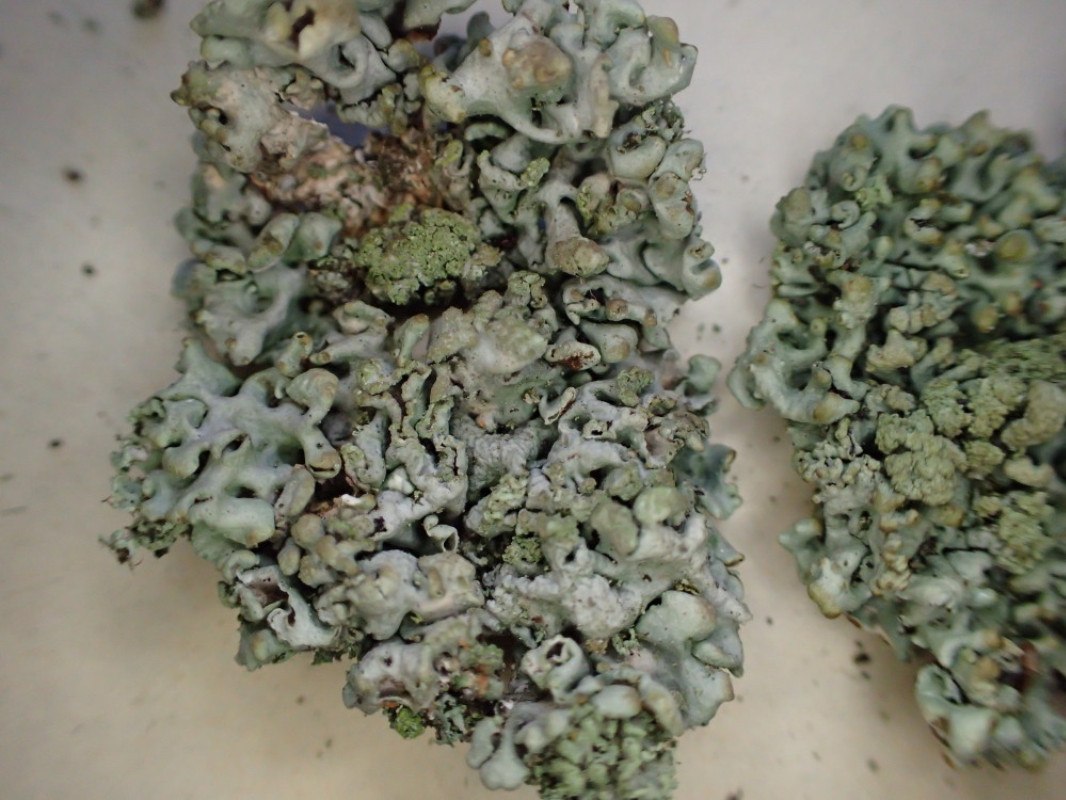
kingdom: Fungi
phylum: Ascomycota
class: Lecanoromycetes
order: Lecanorales
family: Parmeliaceae
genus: Hypogymnia
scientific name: Hypogymnia physodes
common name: almindelig kvistlav
